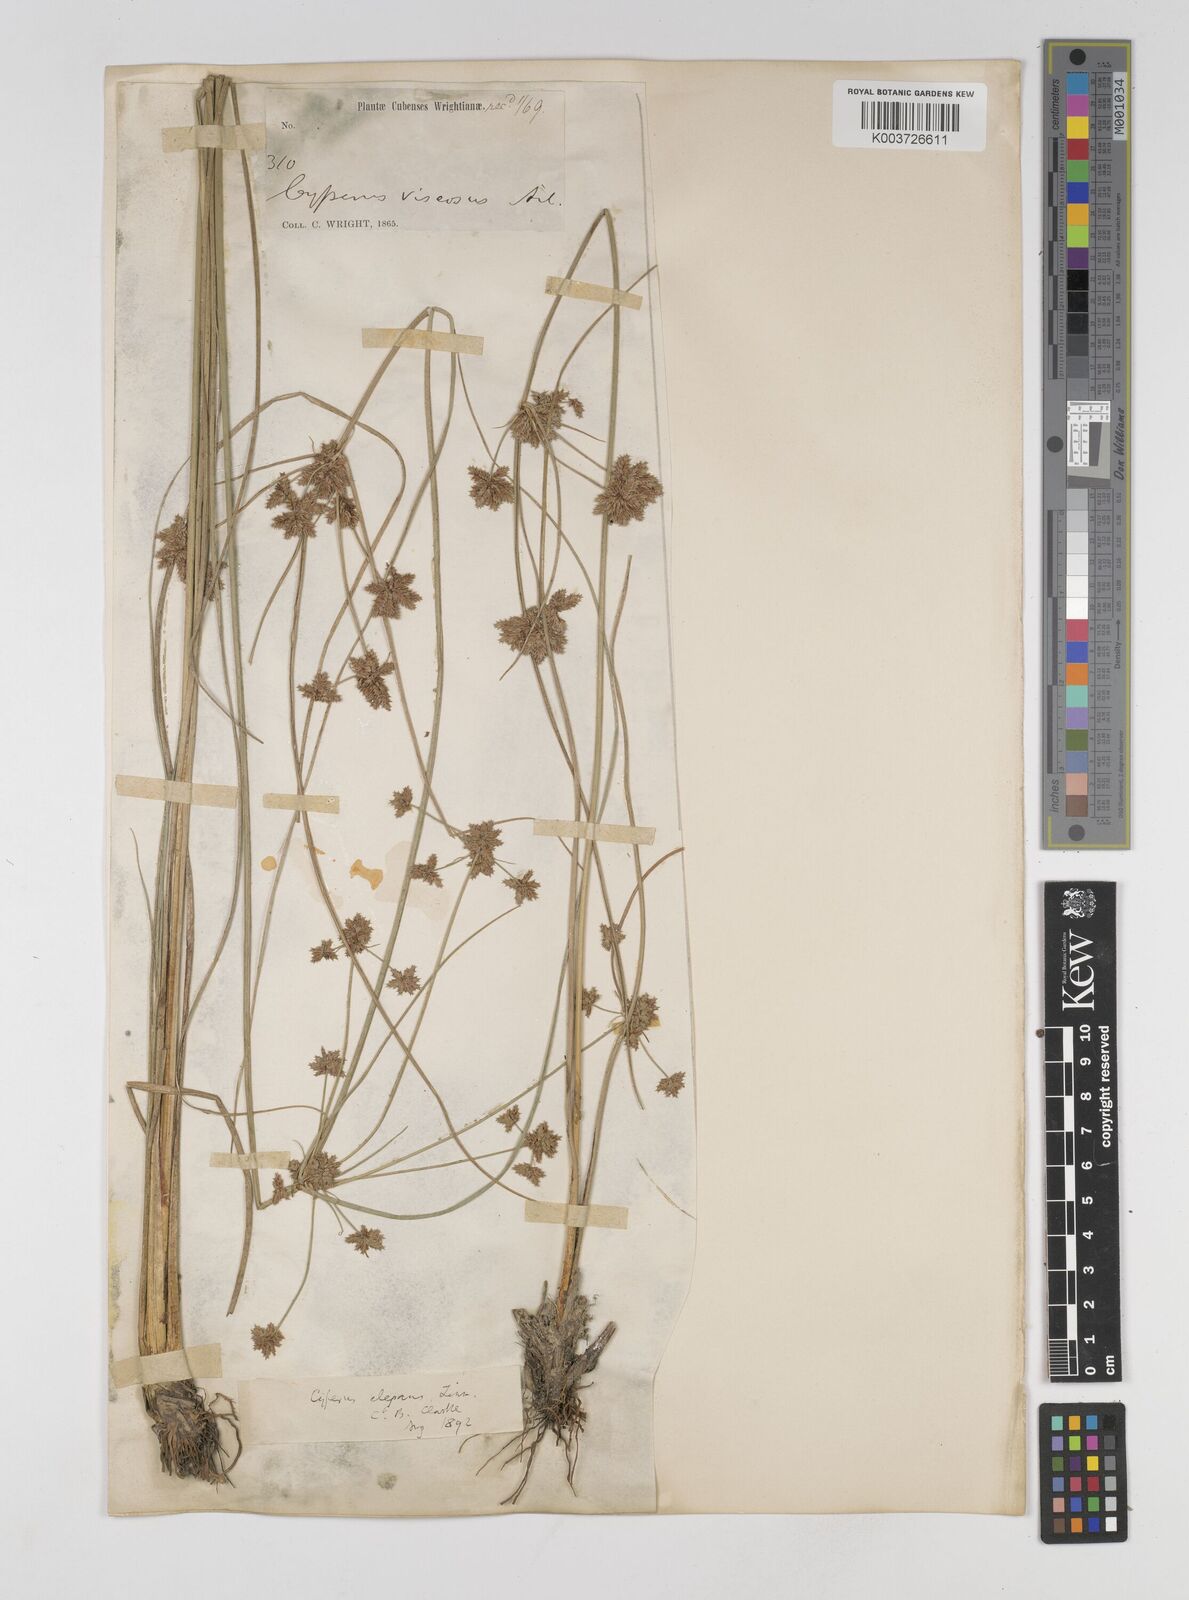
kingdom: Plantae
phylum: Tracheophyta
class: Liliopsida
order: Poales
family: Cyperaceae
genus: Cyperus
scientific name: Cyperus elegans
